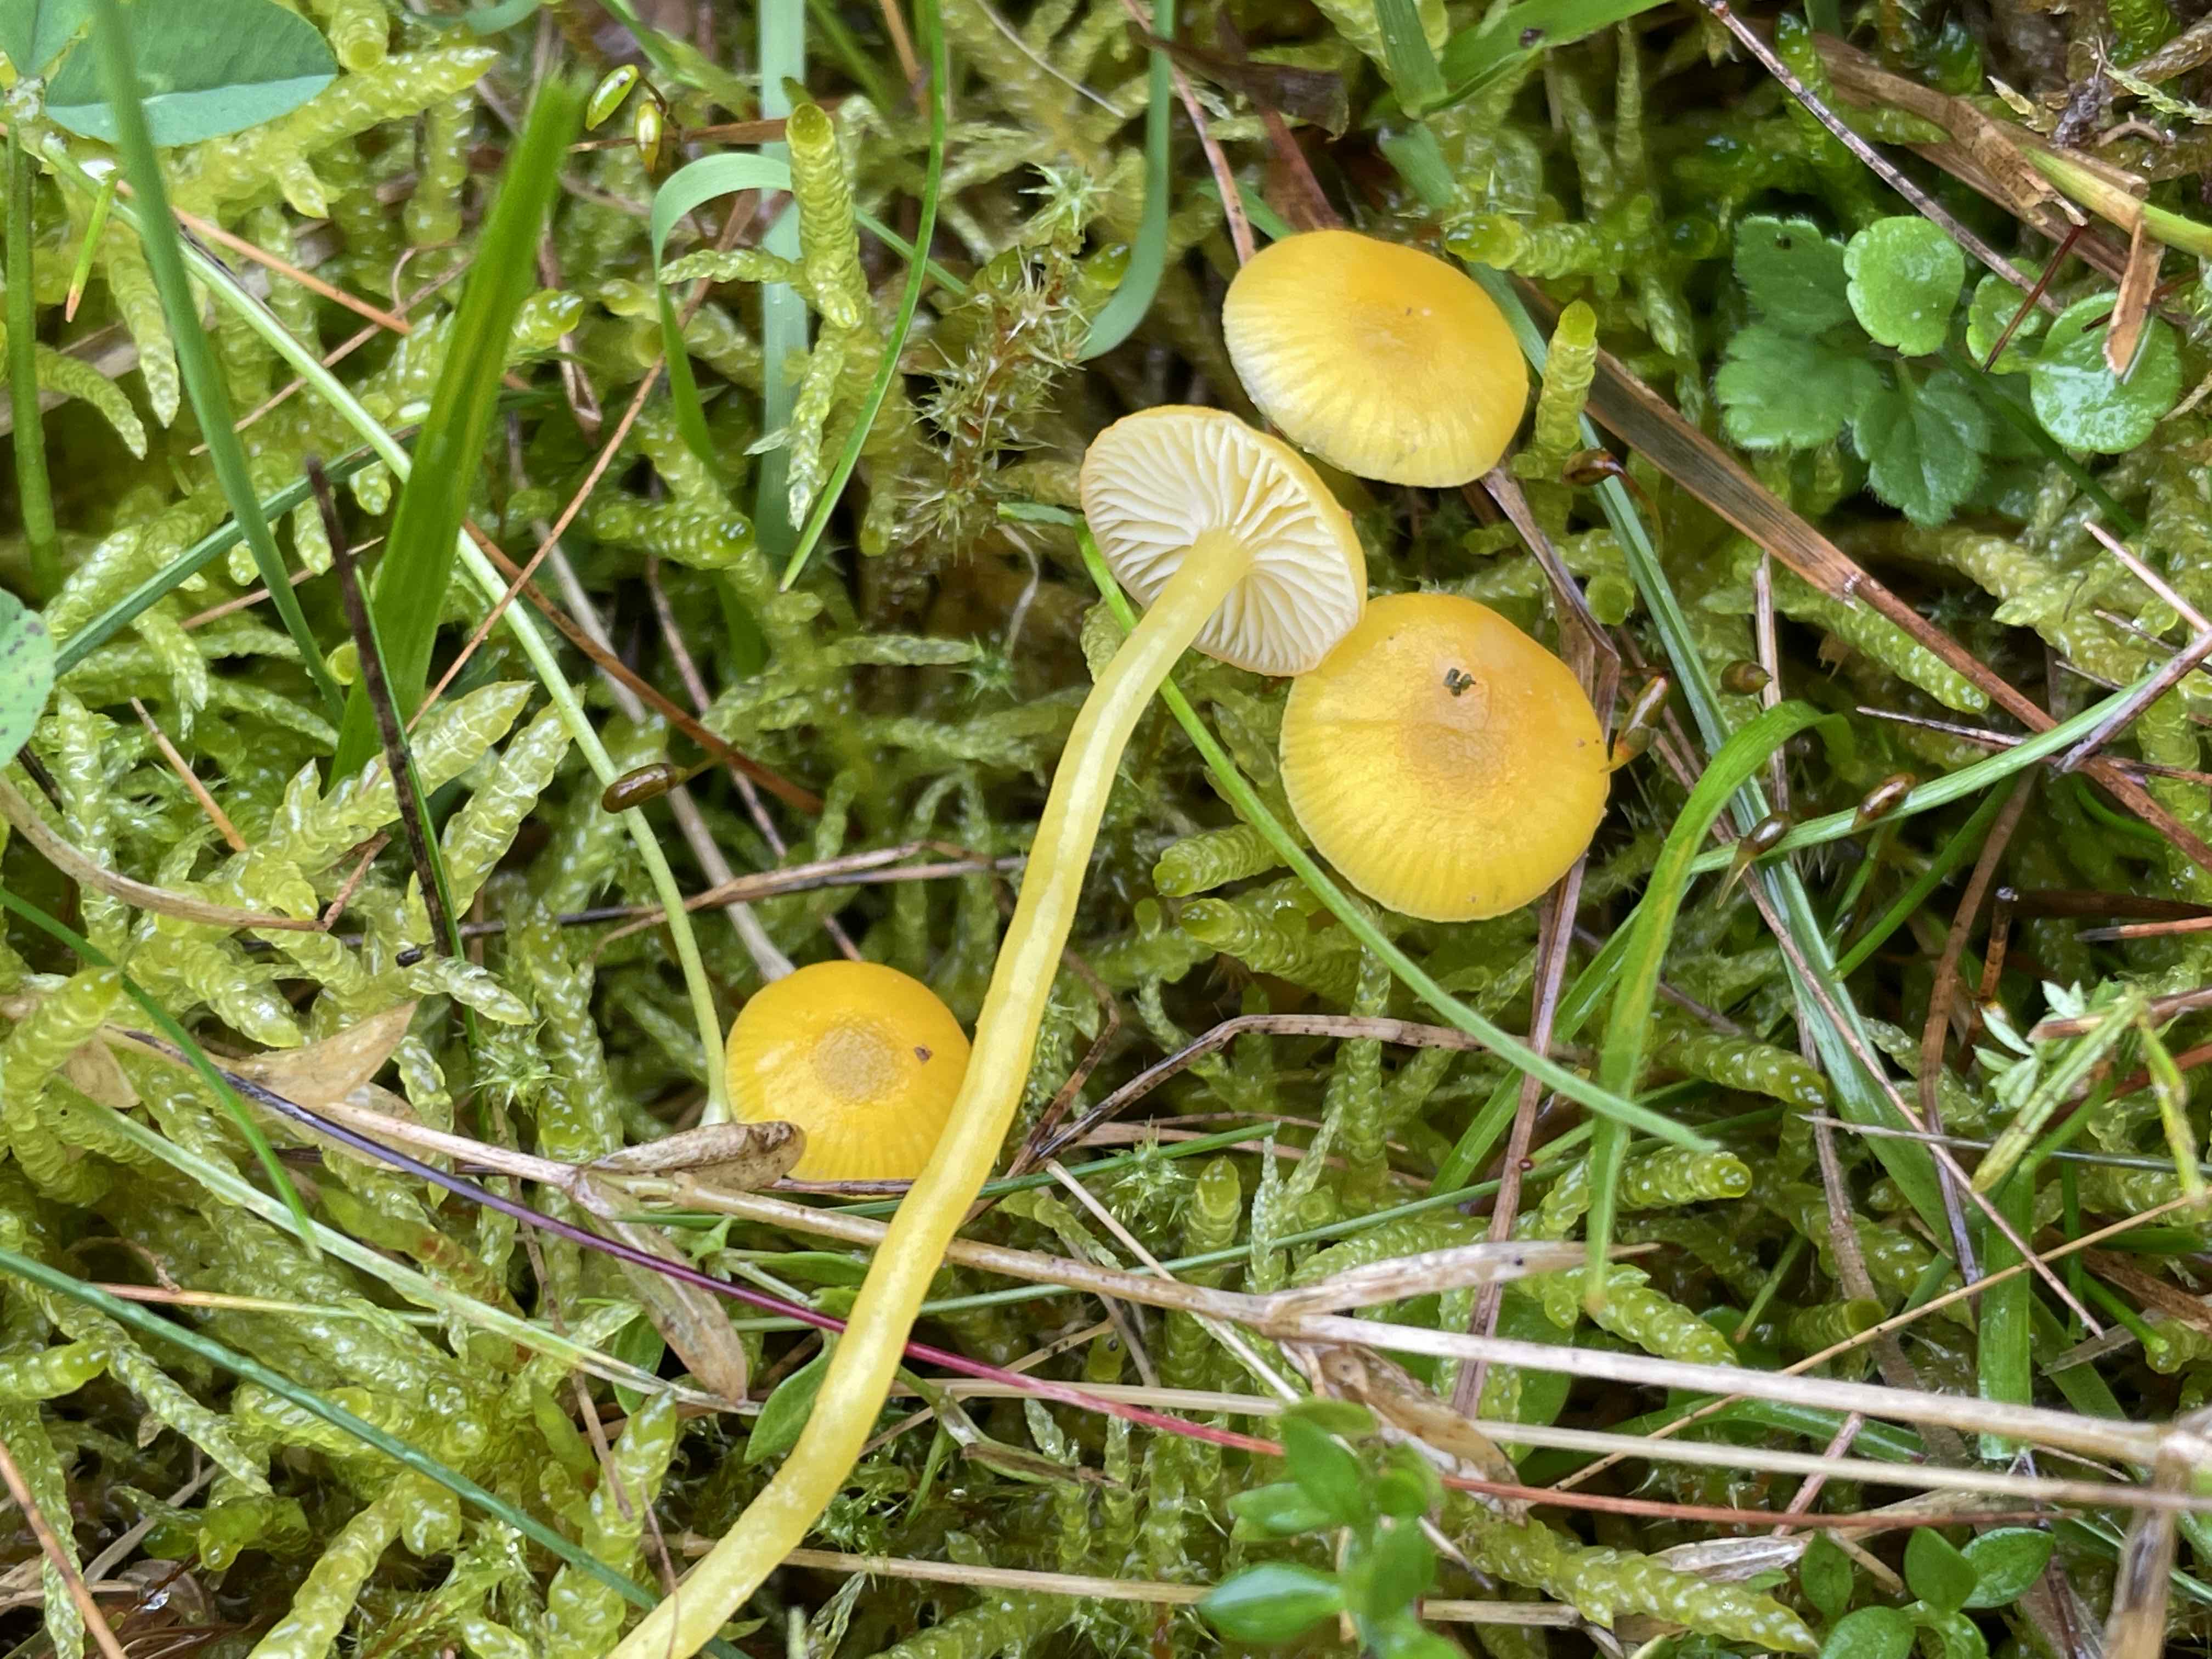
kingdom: Fungi
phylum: Basidiomycota
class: Agaricomycetes
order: Agaricales
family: Hygrophoraceae
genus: Hygrocybe
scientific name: Hygrocybe ceracea
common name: voksgul vokshat
